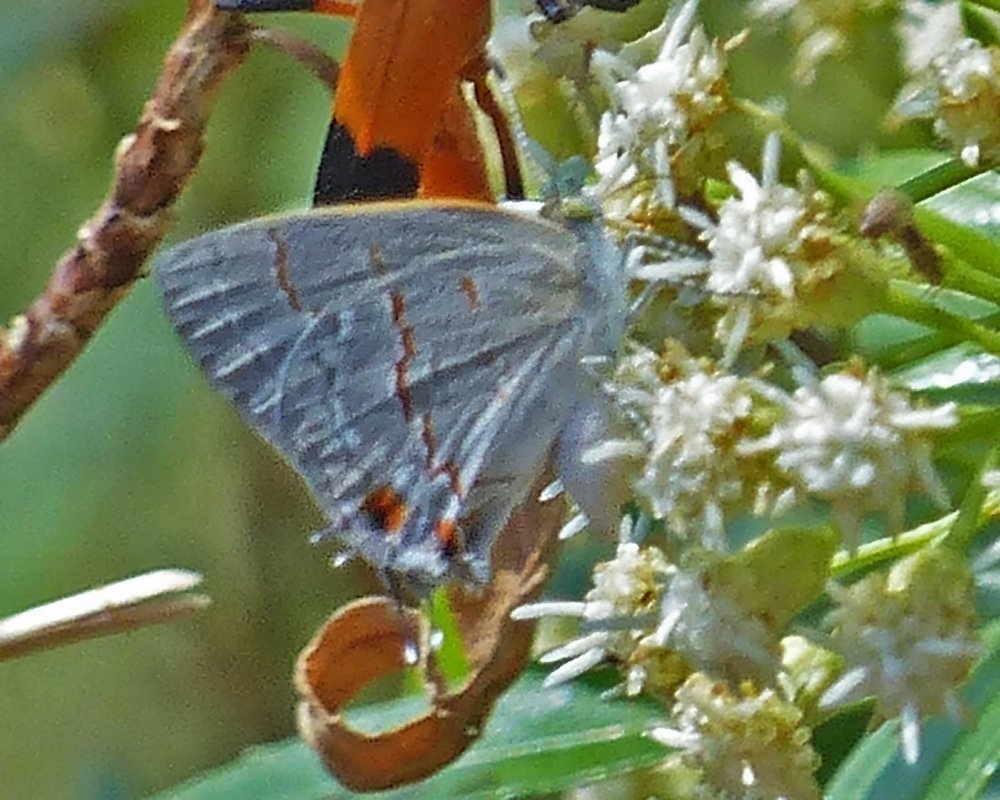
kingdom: Animalia
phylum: Arthropoda
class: Insecta
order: Lepidoptera
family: Lycaenidae
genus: Ministrymon
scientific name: Ministrymon leda
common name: Leda Ministreak
